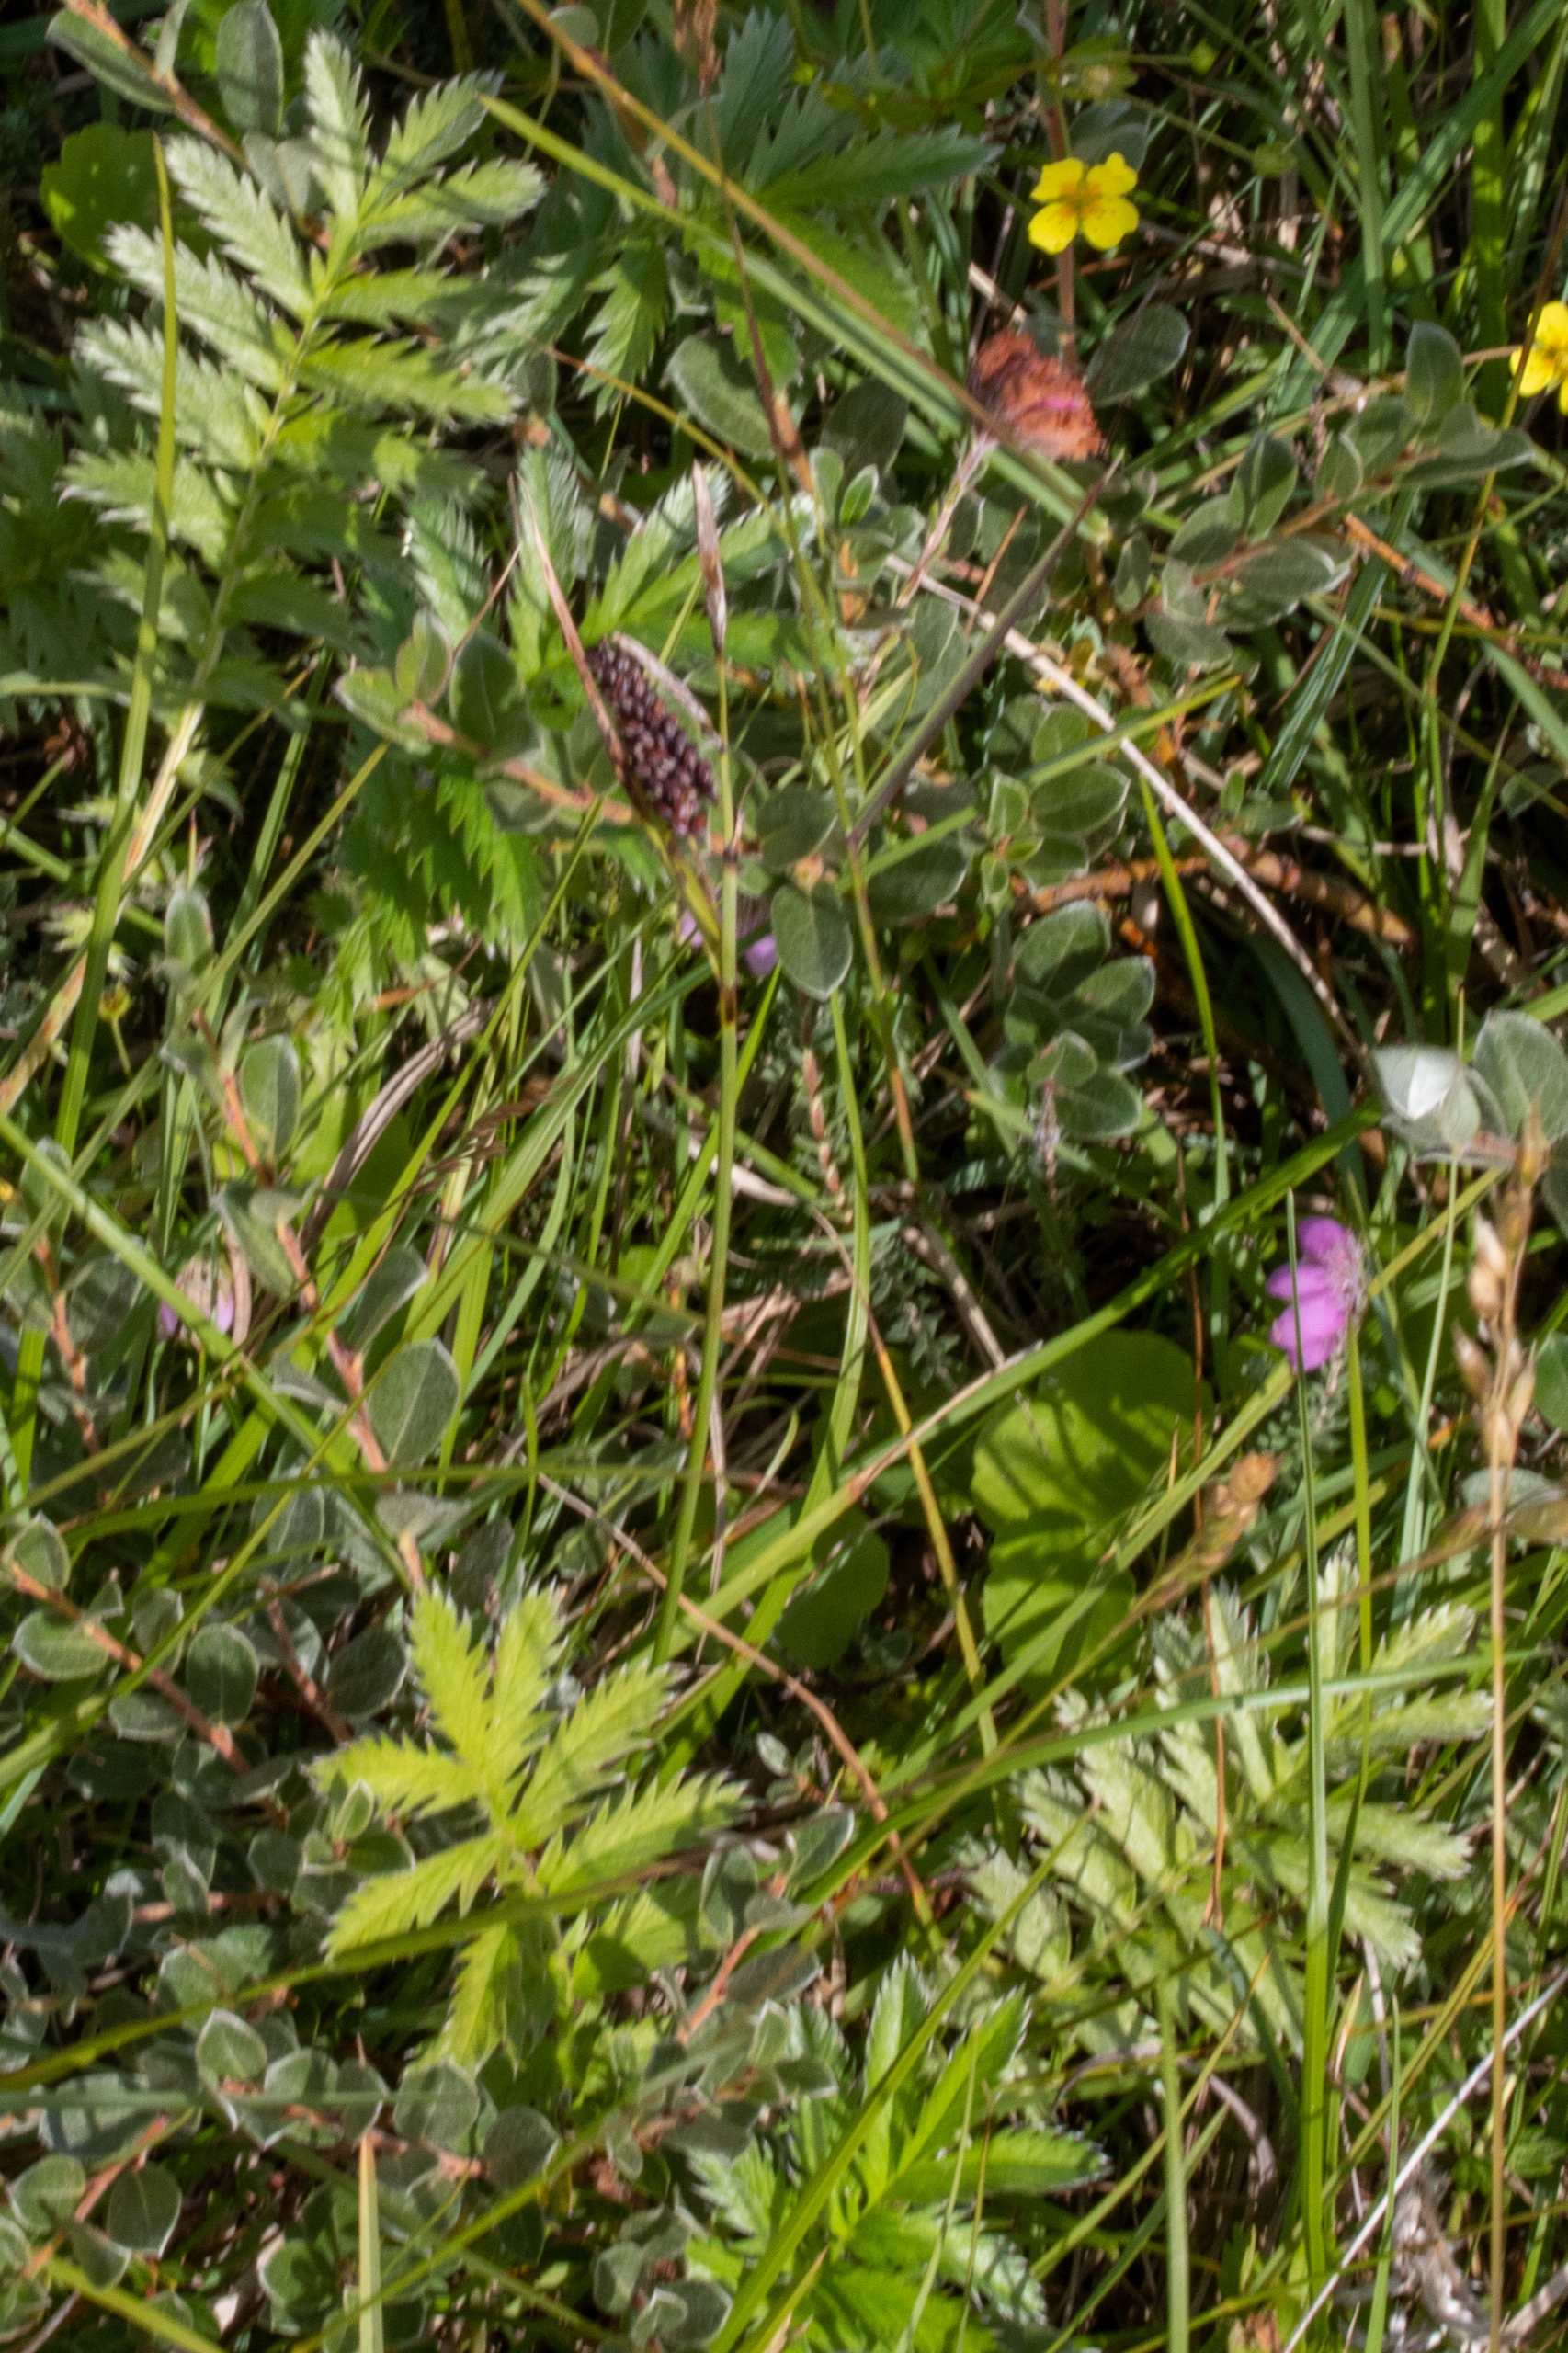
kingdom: Plantae
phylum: Tracheophyta
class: Magnoliopsida
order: Rosales
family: Rosaceae
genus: Argentina
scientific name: Argentina anserina
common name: Gåsepotentil
